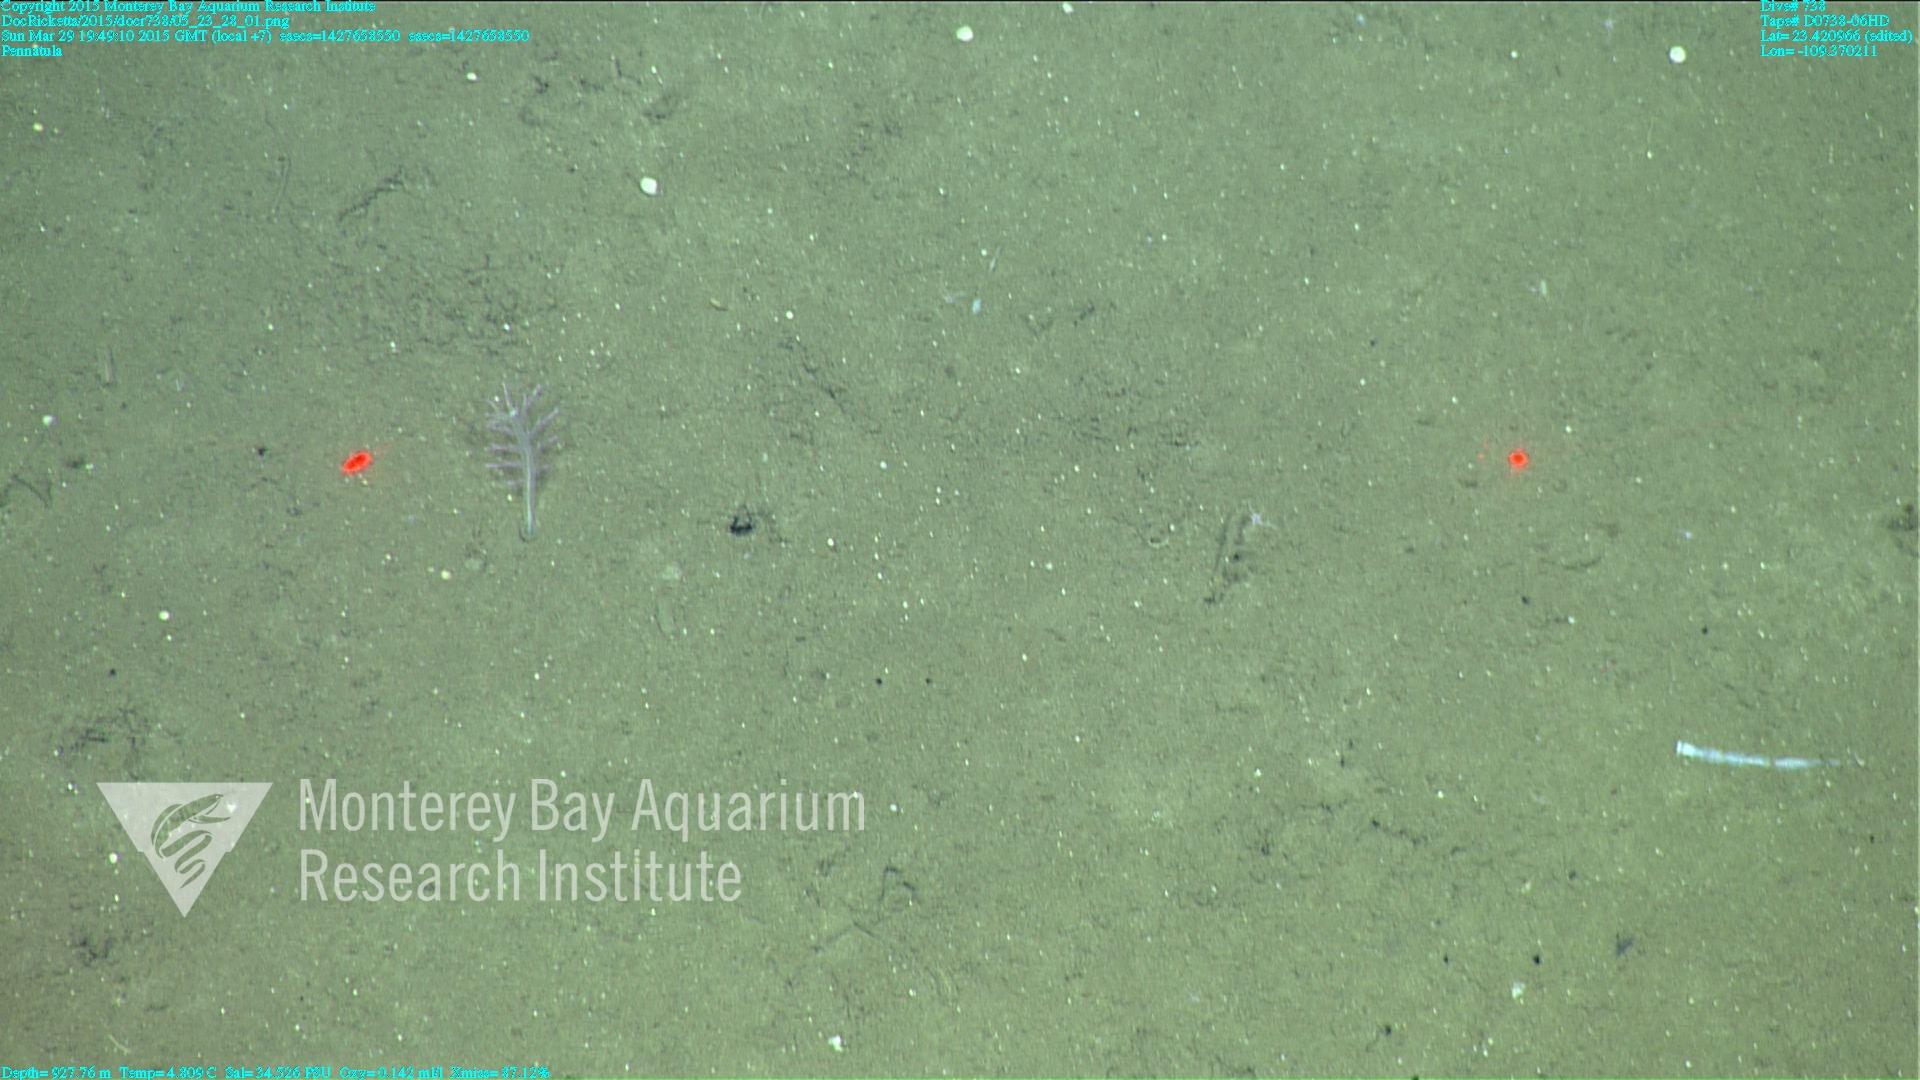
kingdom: Animalia
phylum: Cnidaria
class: Anthozoa
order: Scleralcyonacea
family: Pennatulidae
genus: Pennatula
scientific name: Pennatula
